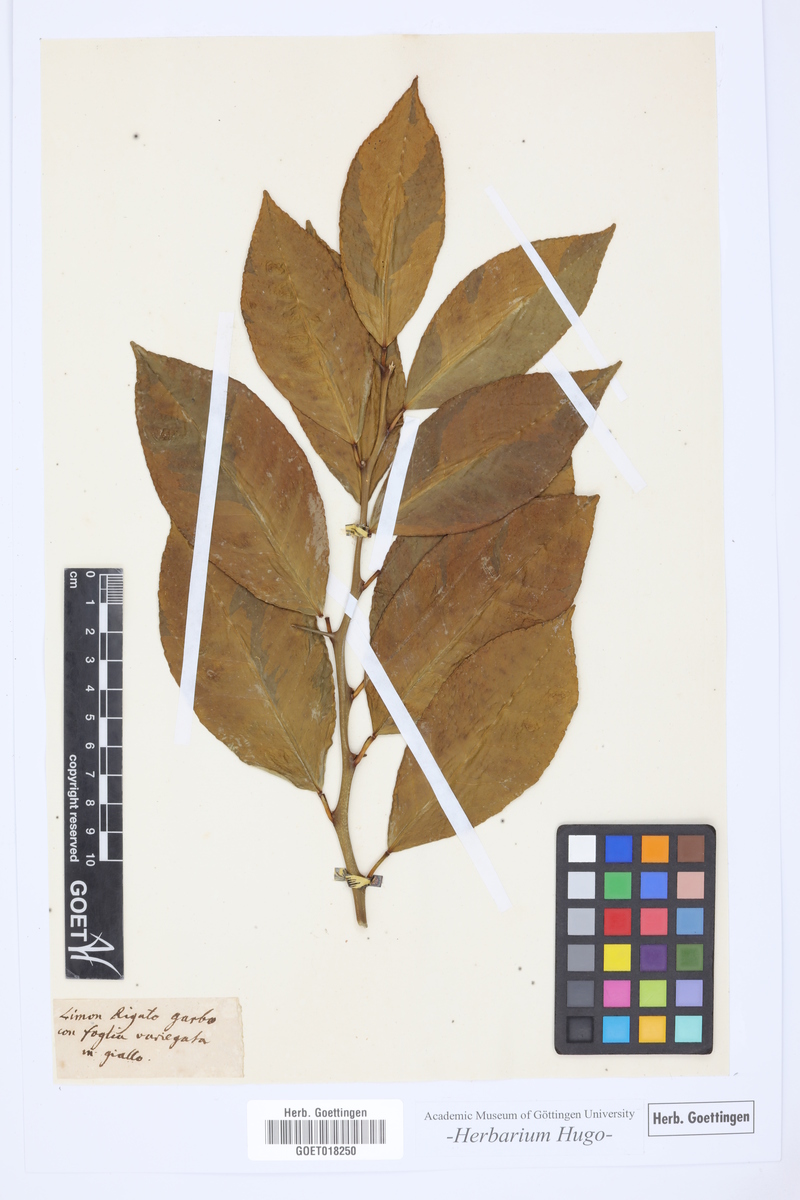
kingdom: Plantae
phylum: Tracheophyta
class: Magnoliopsida
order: Sapindales
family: Rutaceae
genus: Citrus
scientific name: Citrus
